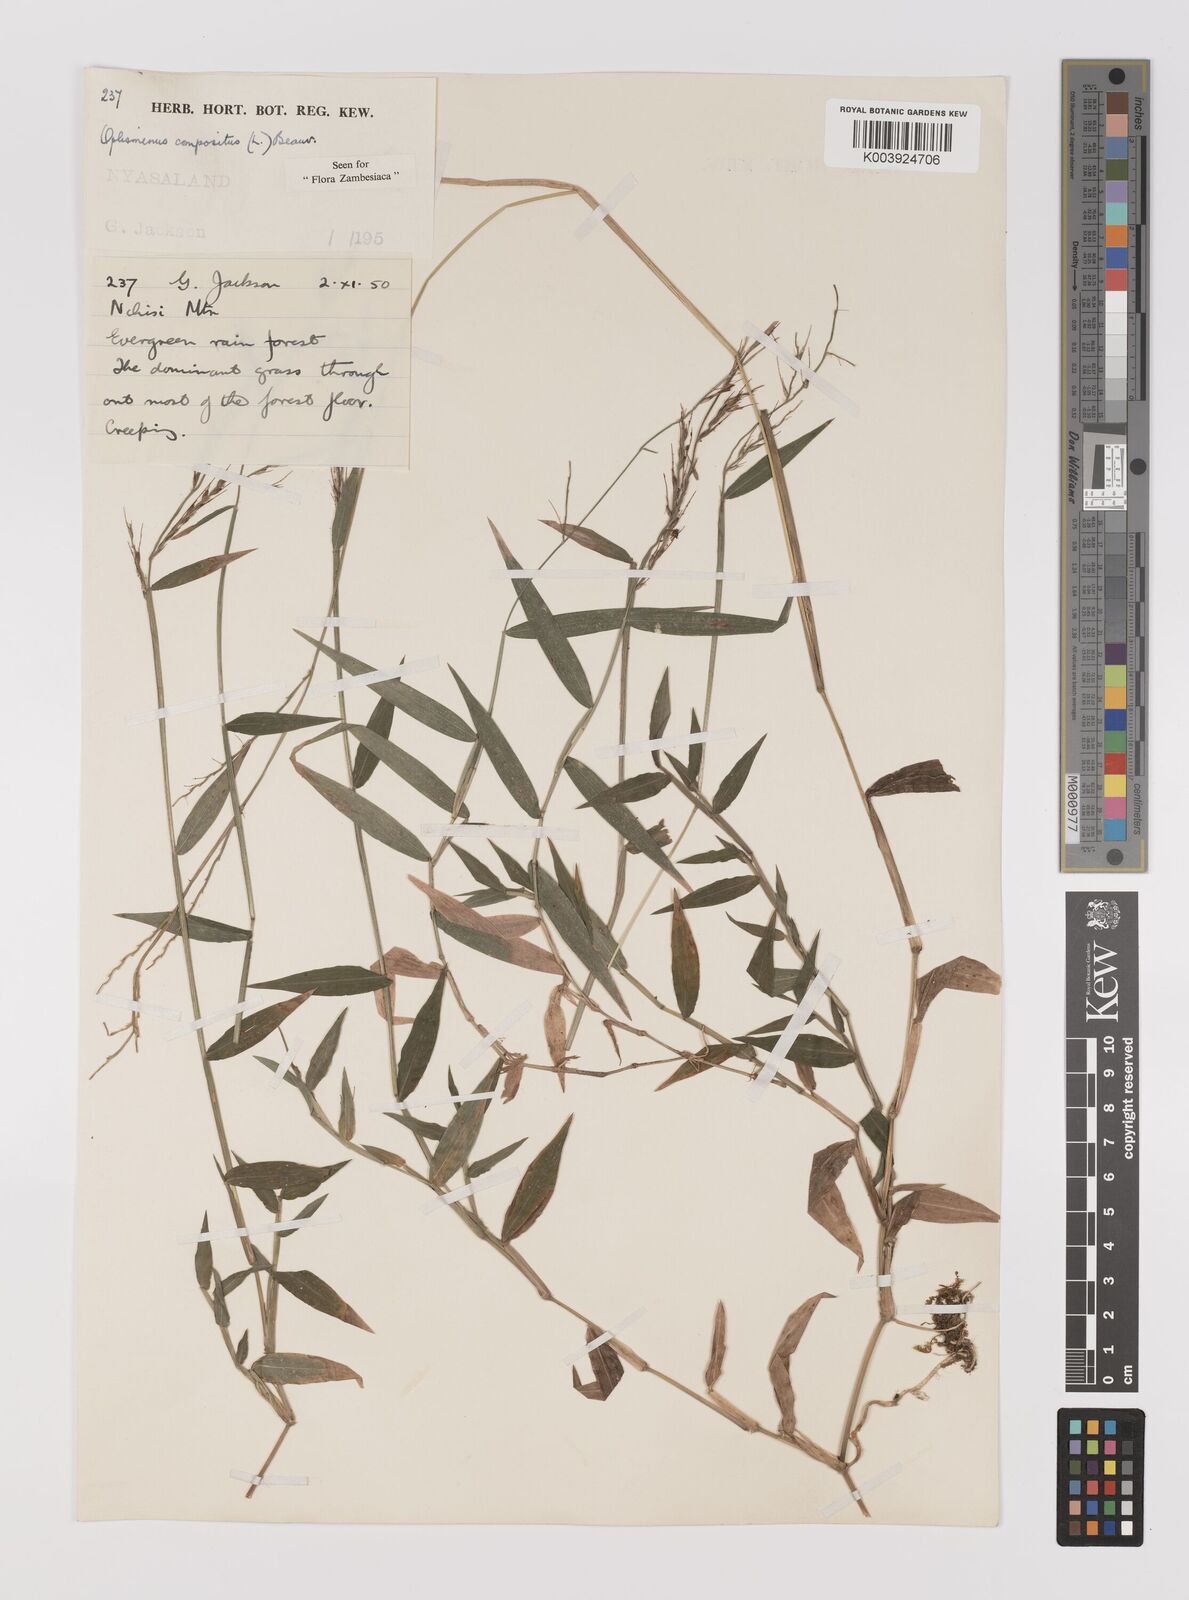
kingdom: Plantae
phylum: Tracheophyta
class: Liliopsida
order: Poales
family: Poaceae
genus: Oplismenus
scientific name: Oplismenus compositus
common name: Running mountain grass
